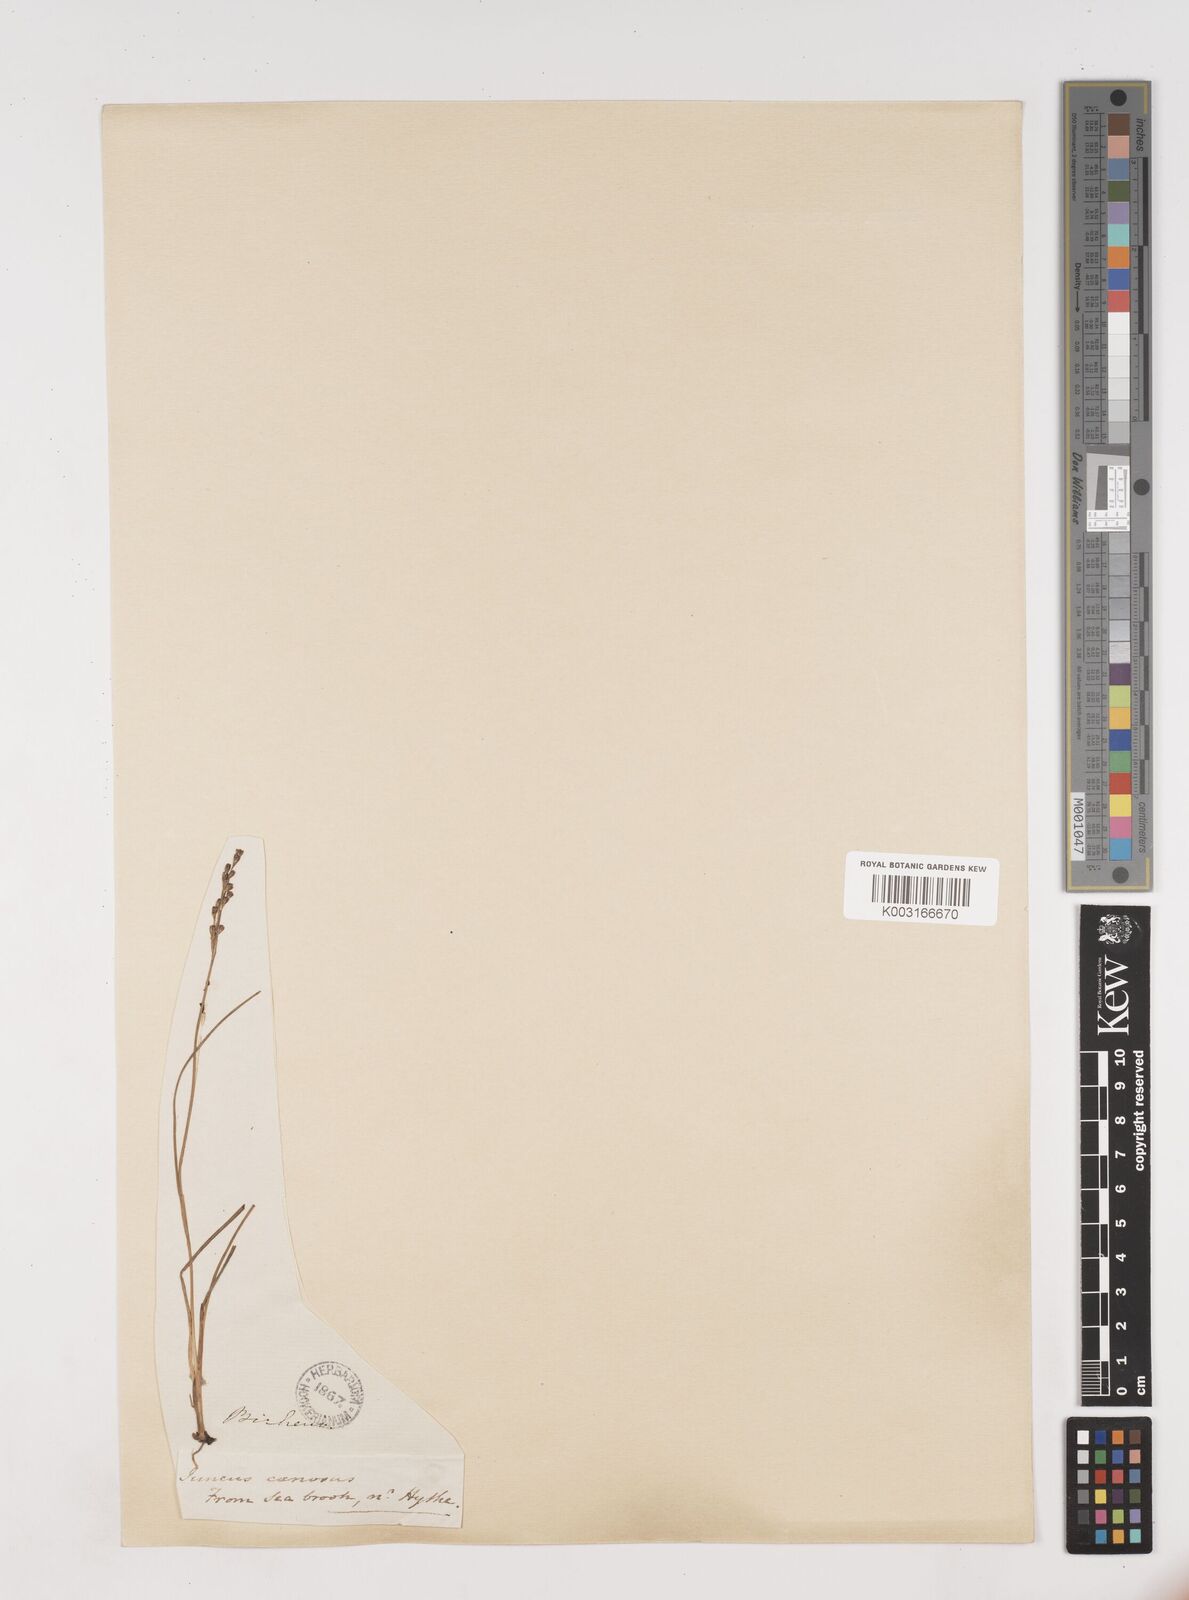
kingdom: Plantae
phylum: Tracheophyta
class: Liliopsida
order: Poales
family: Juncaceae
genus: Juncus
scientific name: Juncus compressus
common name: Round-fruited rush
